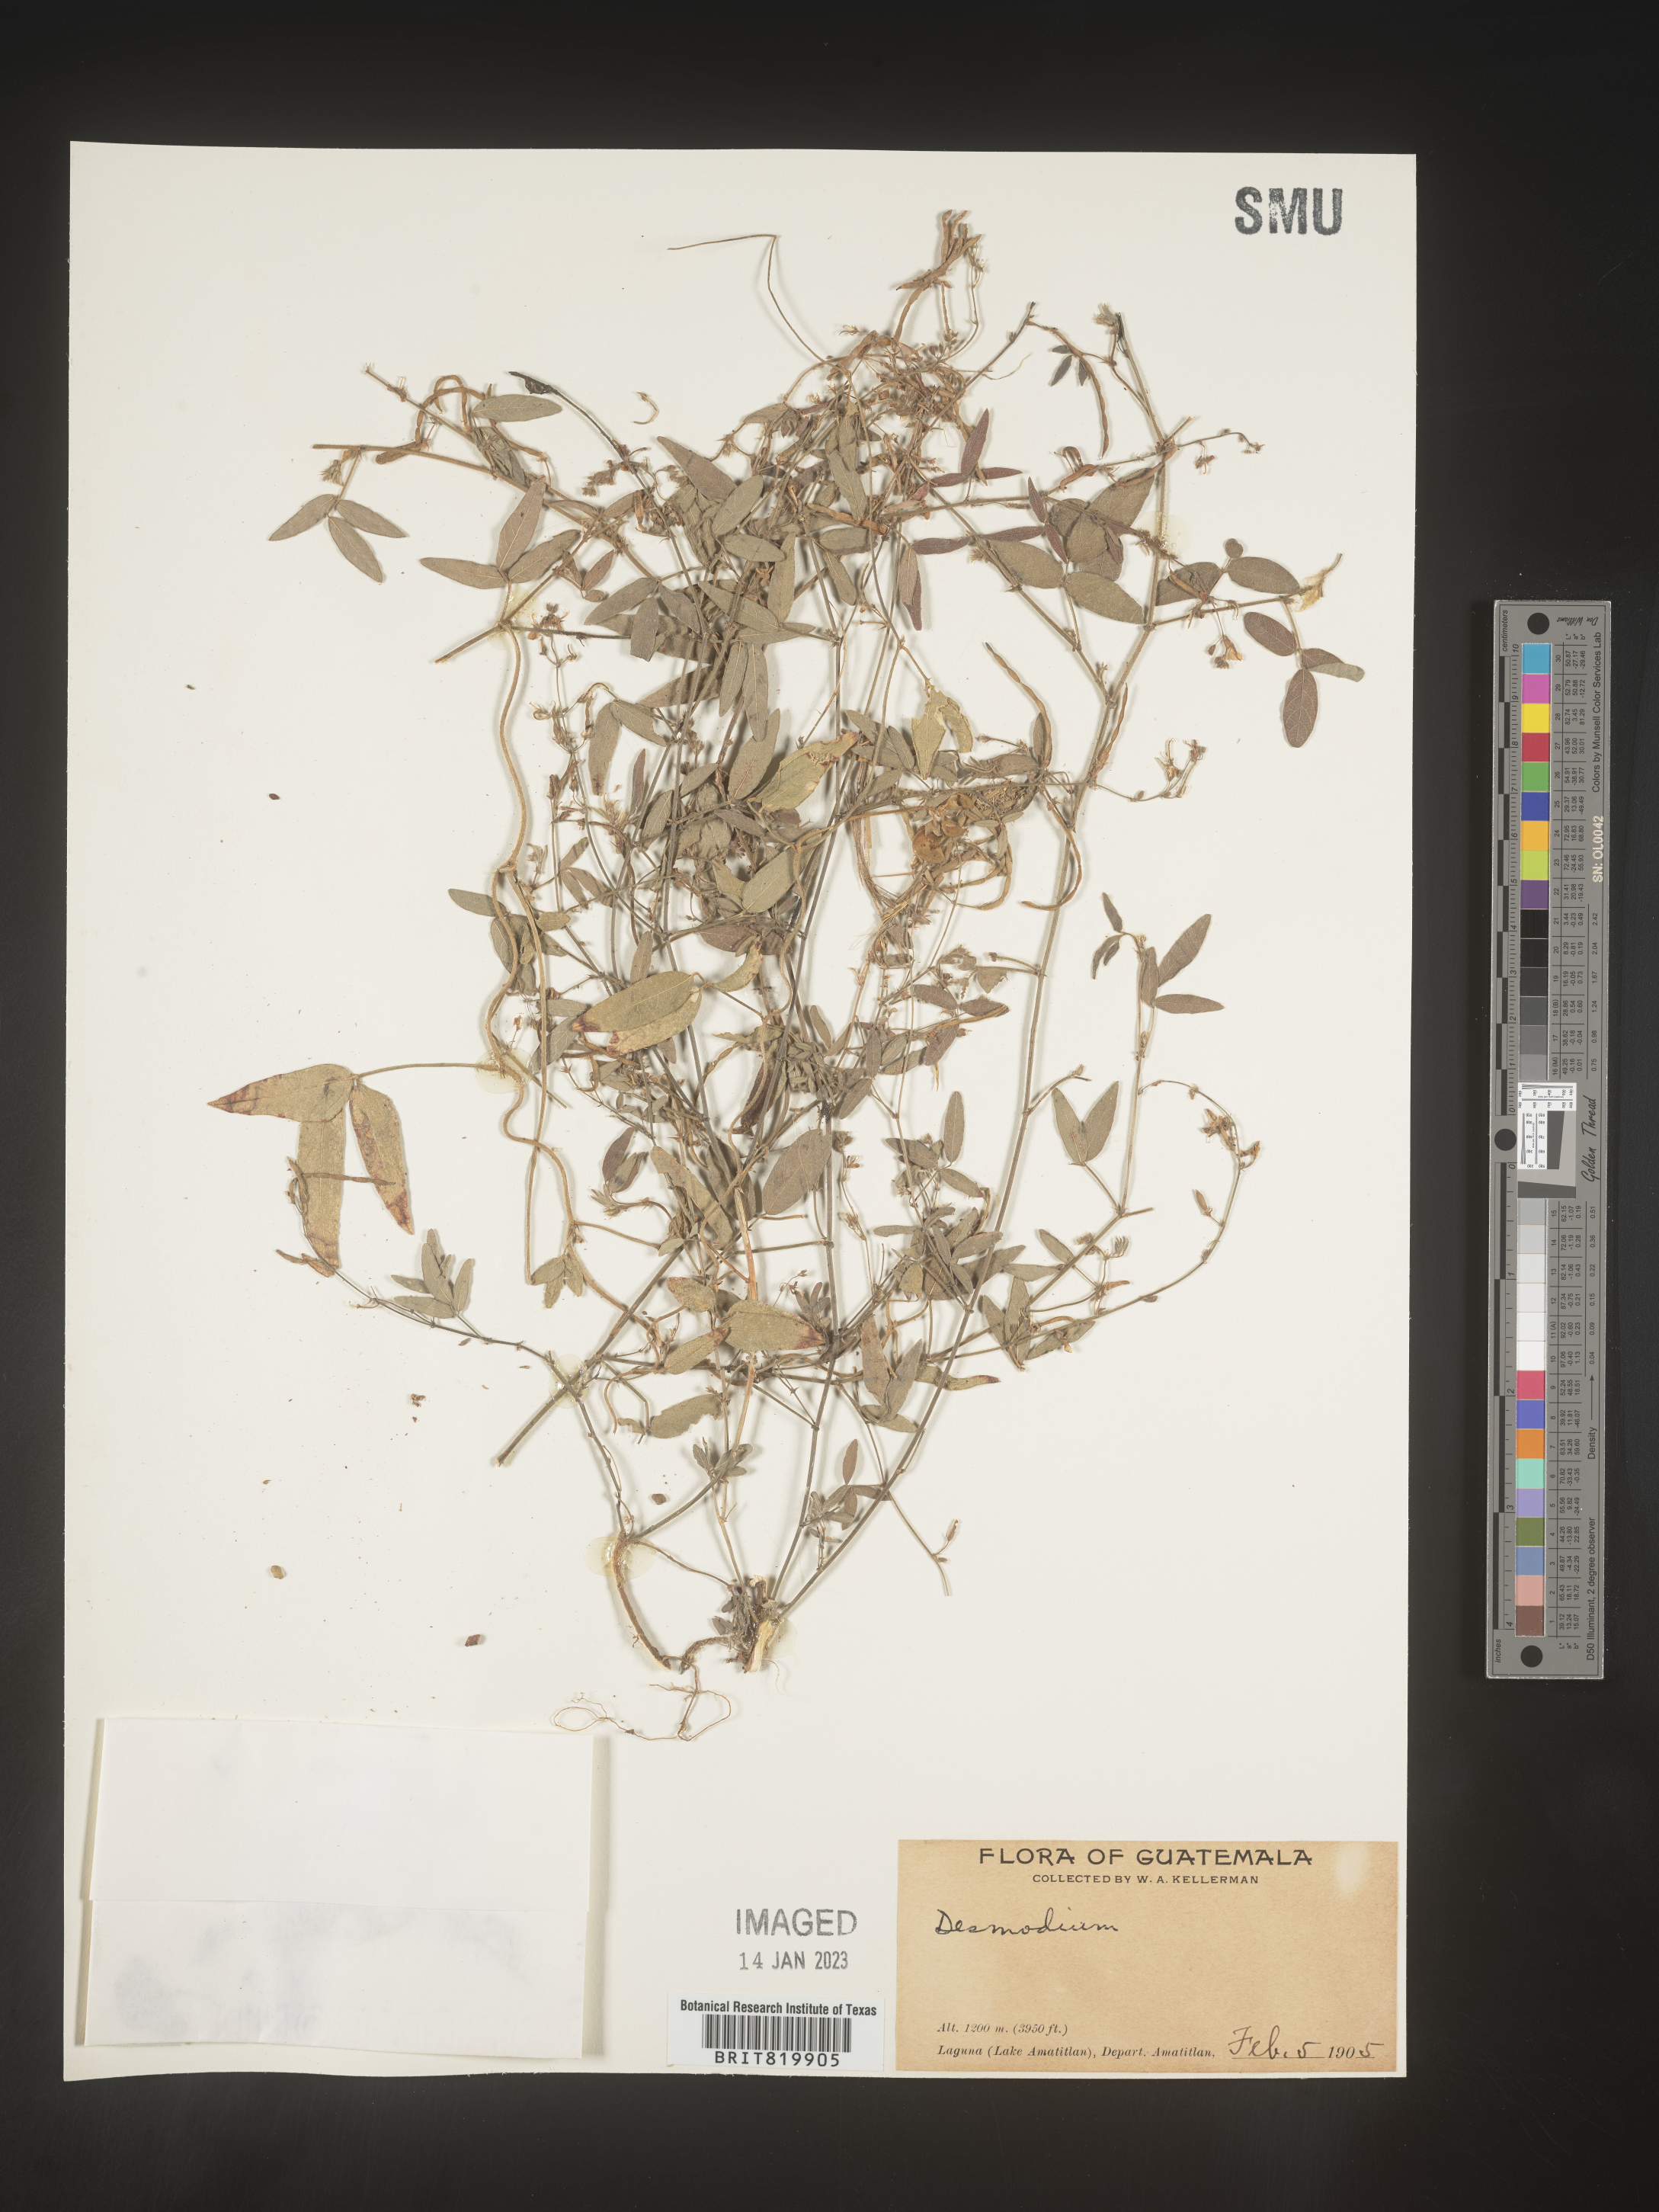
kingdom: Plantae
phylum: Tracheophyta
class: Magnoliopsida
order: Fabales
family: Fabaceae
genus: Desmodium
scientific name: Desmodium
